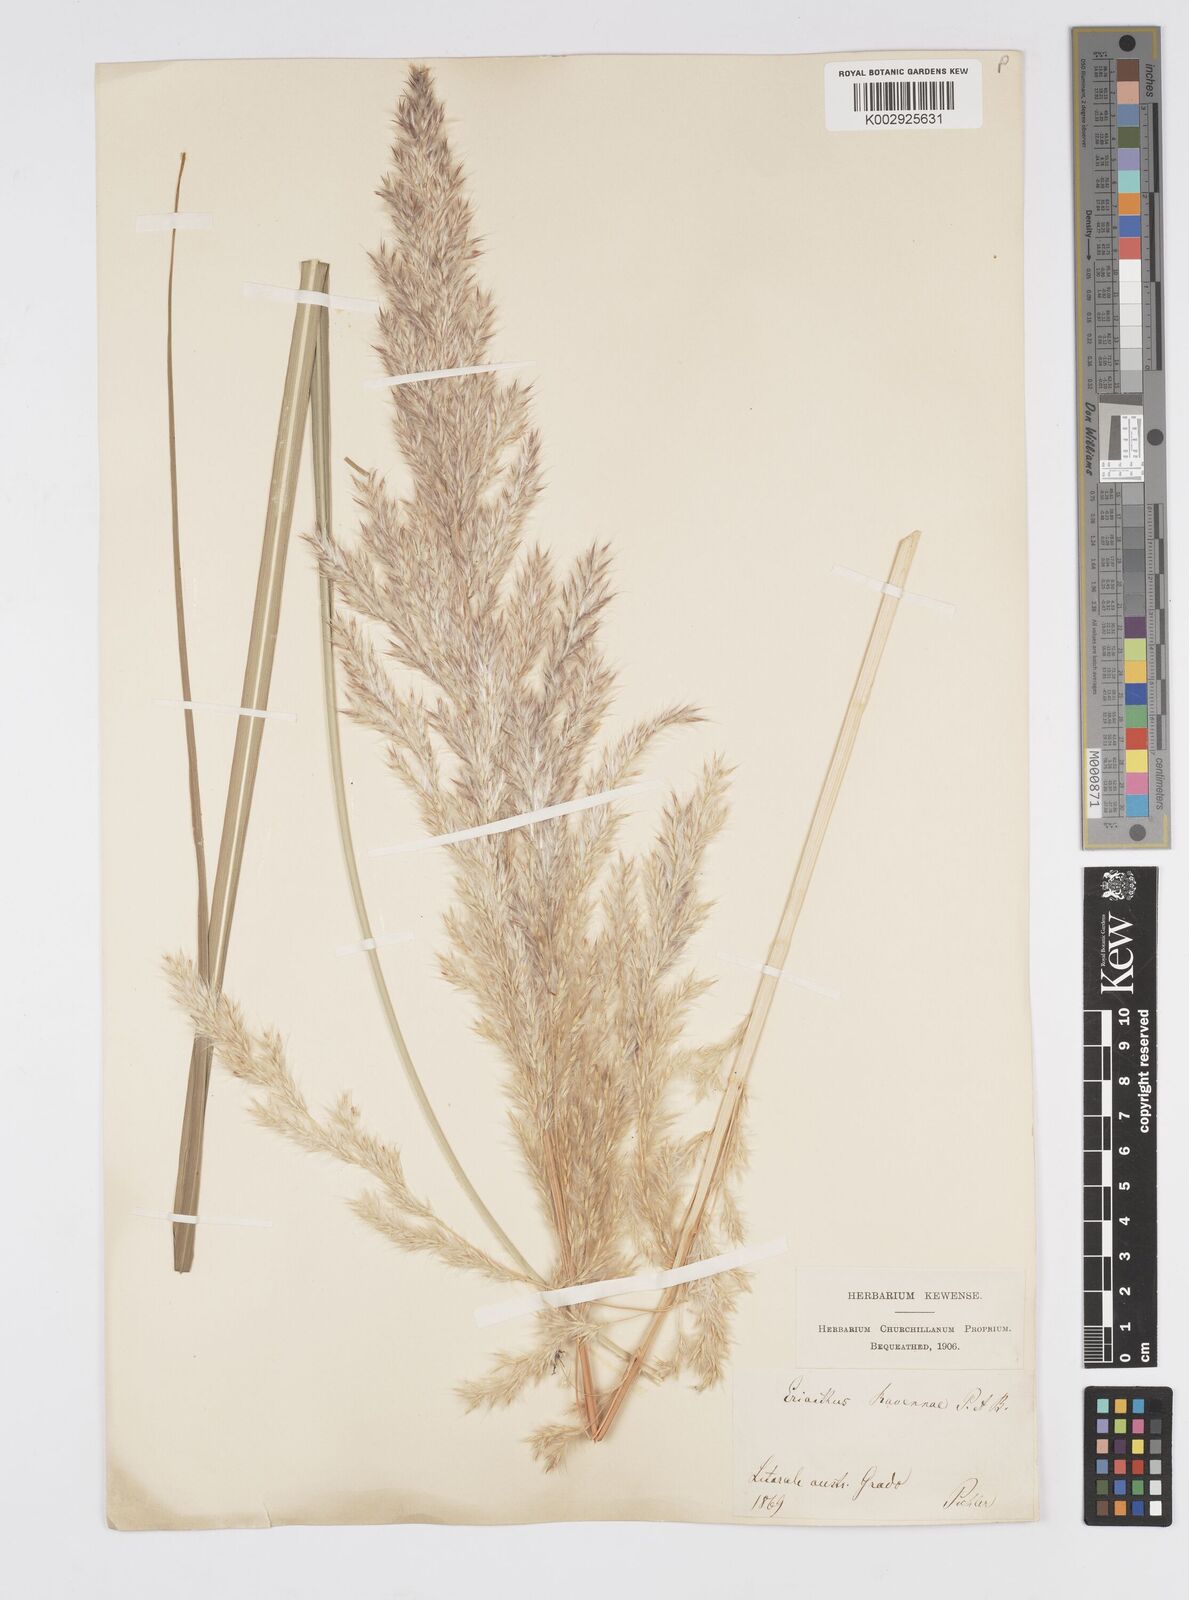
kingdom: Plantae
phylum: Tracheophyta
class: Liliopsida
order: Poales
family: Poaceae
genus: Tripidium
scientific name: Tripidium ravennae
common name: Ravenna grass
